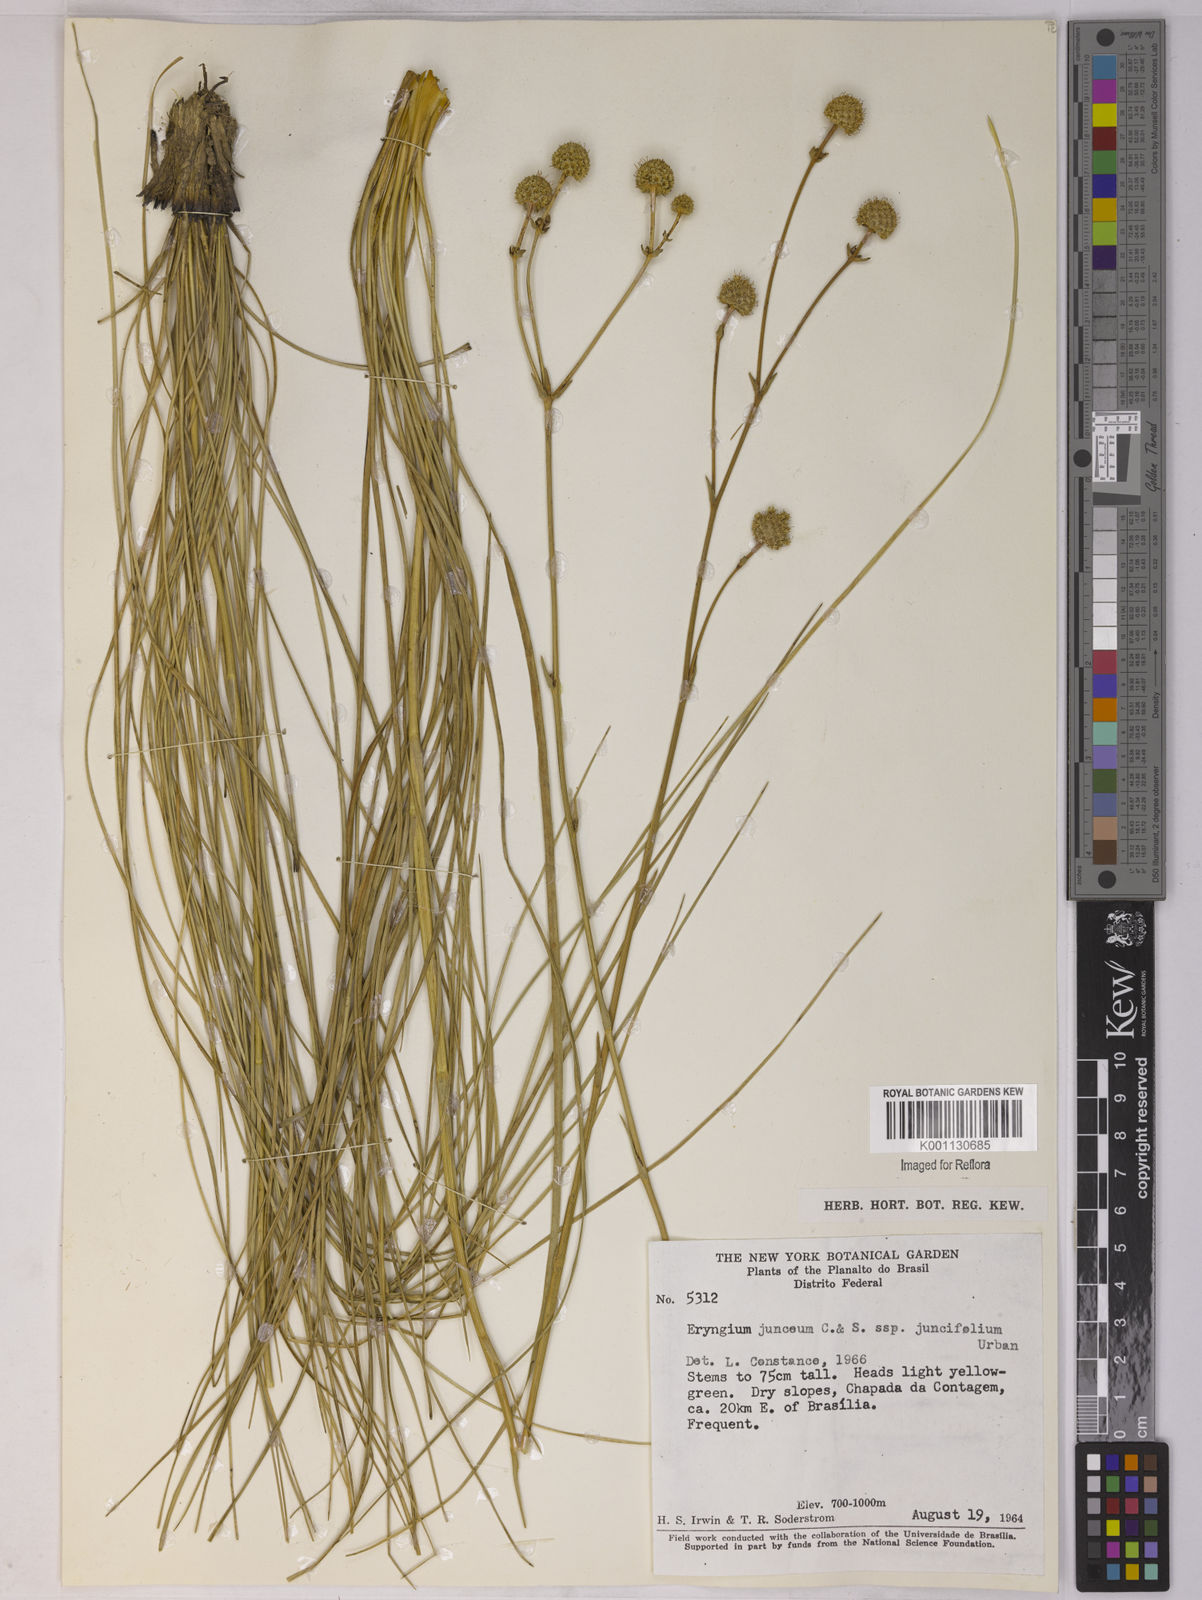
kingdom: Plantae
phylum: Tracheophyta
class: Magnoliopsida
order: Apiales
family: Apiaceae
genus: Eryngium
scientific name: Eryngium juncifolium
